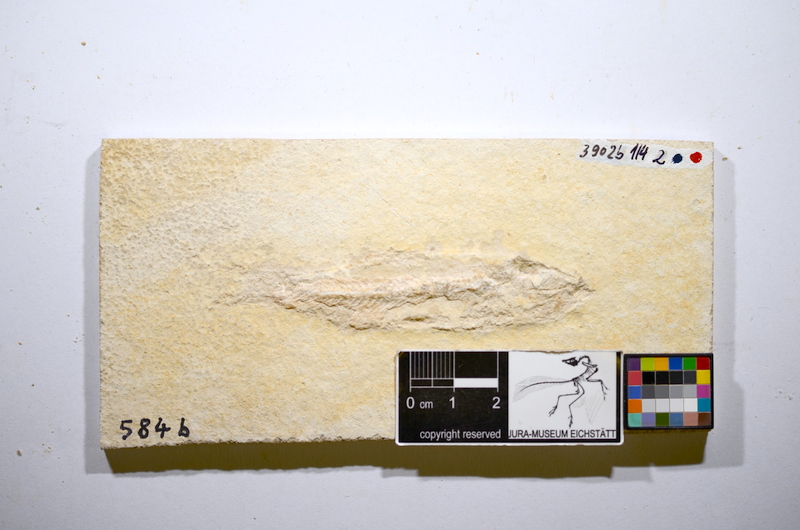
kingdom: Animalia
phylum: Chordata
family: Ascalaboidae
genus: Ascalabos
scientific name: Ascalabos voithii
